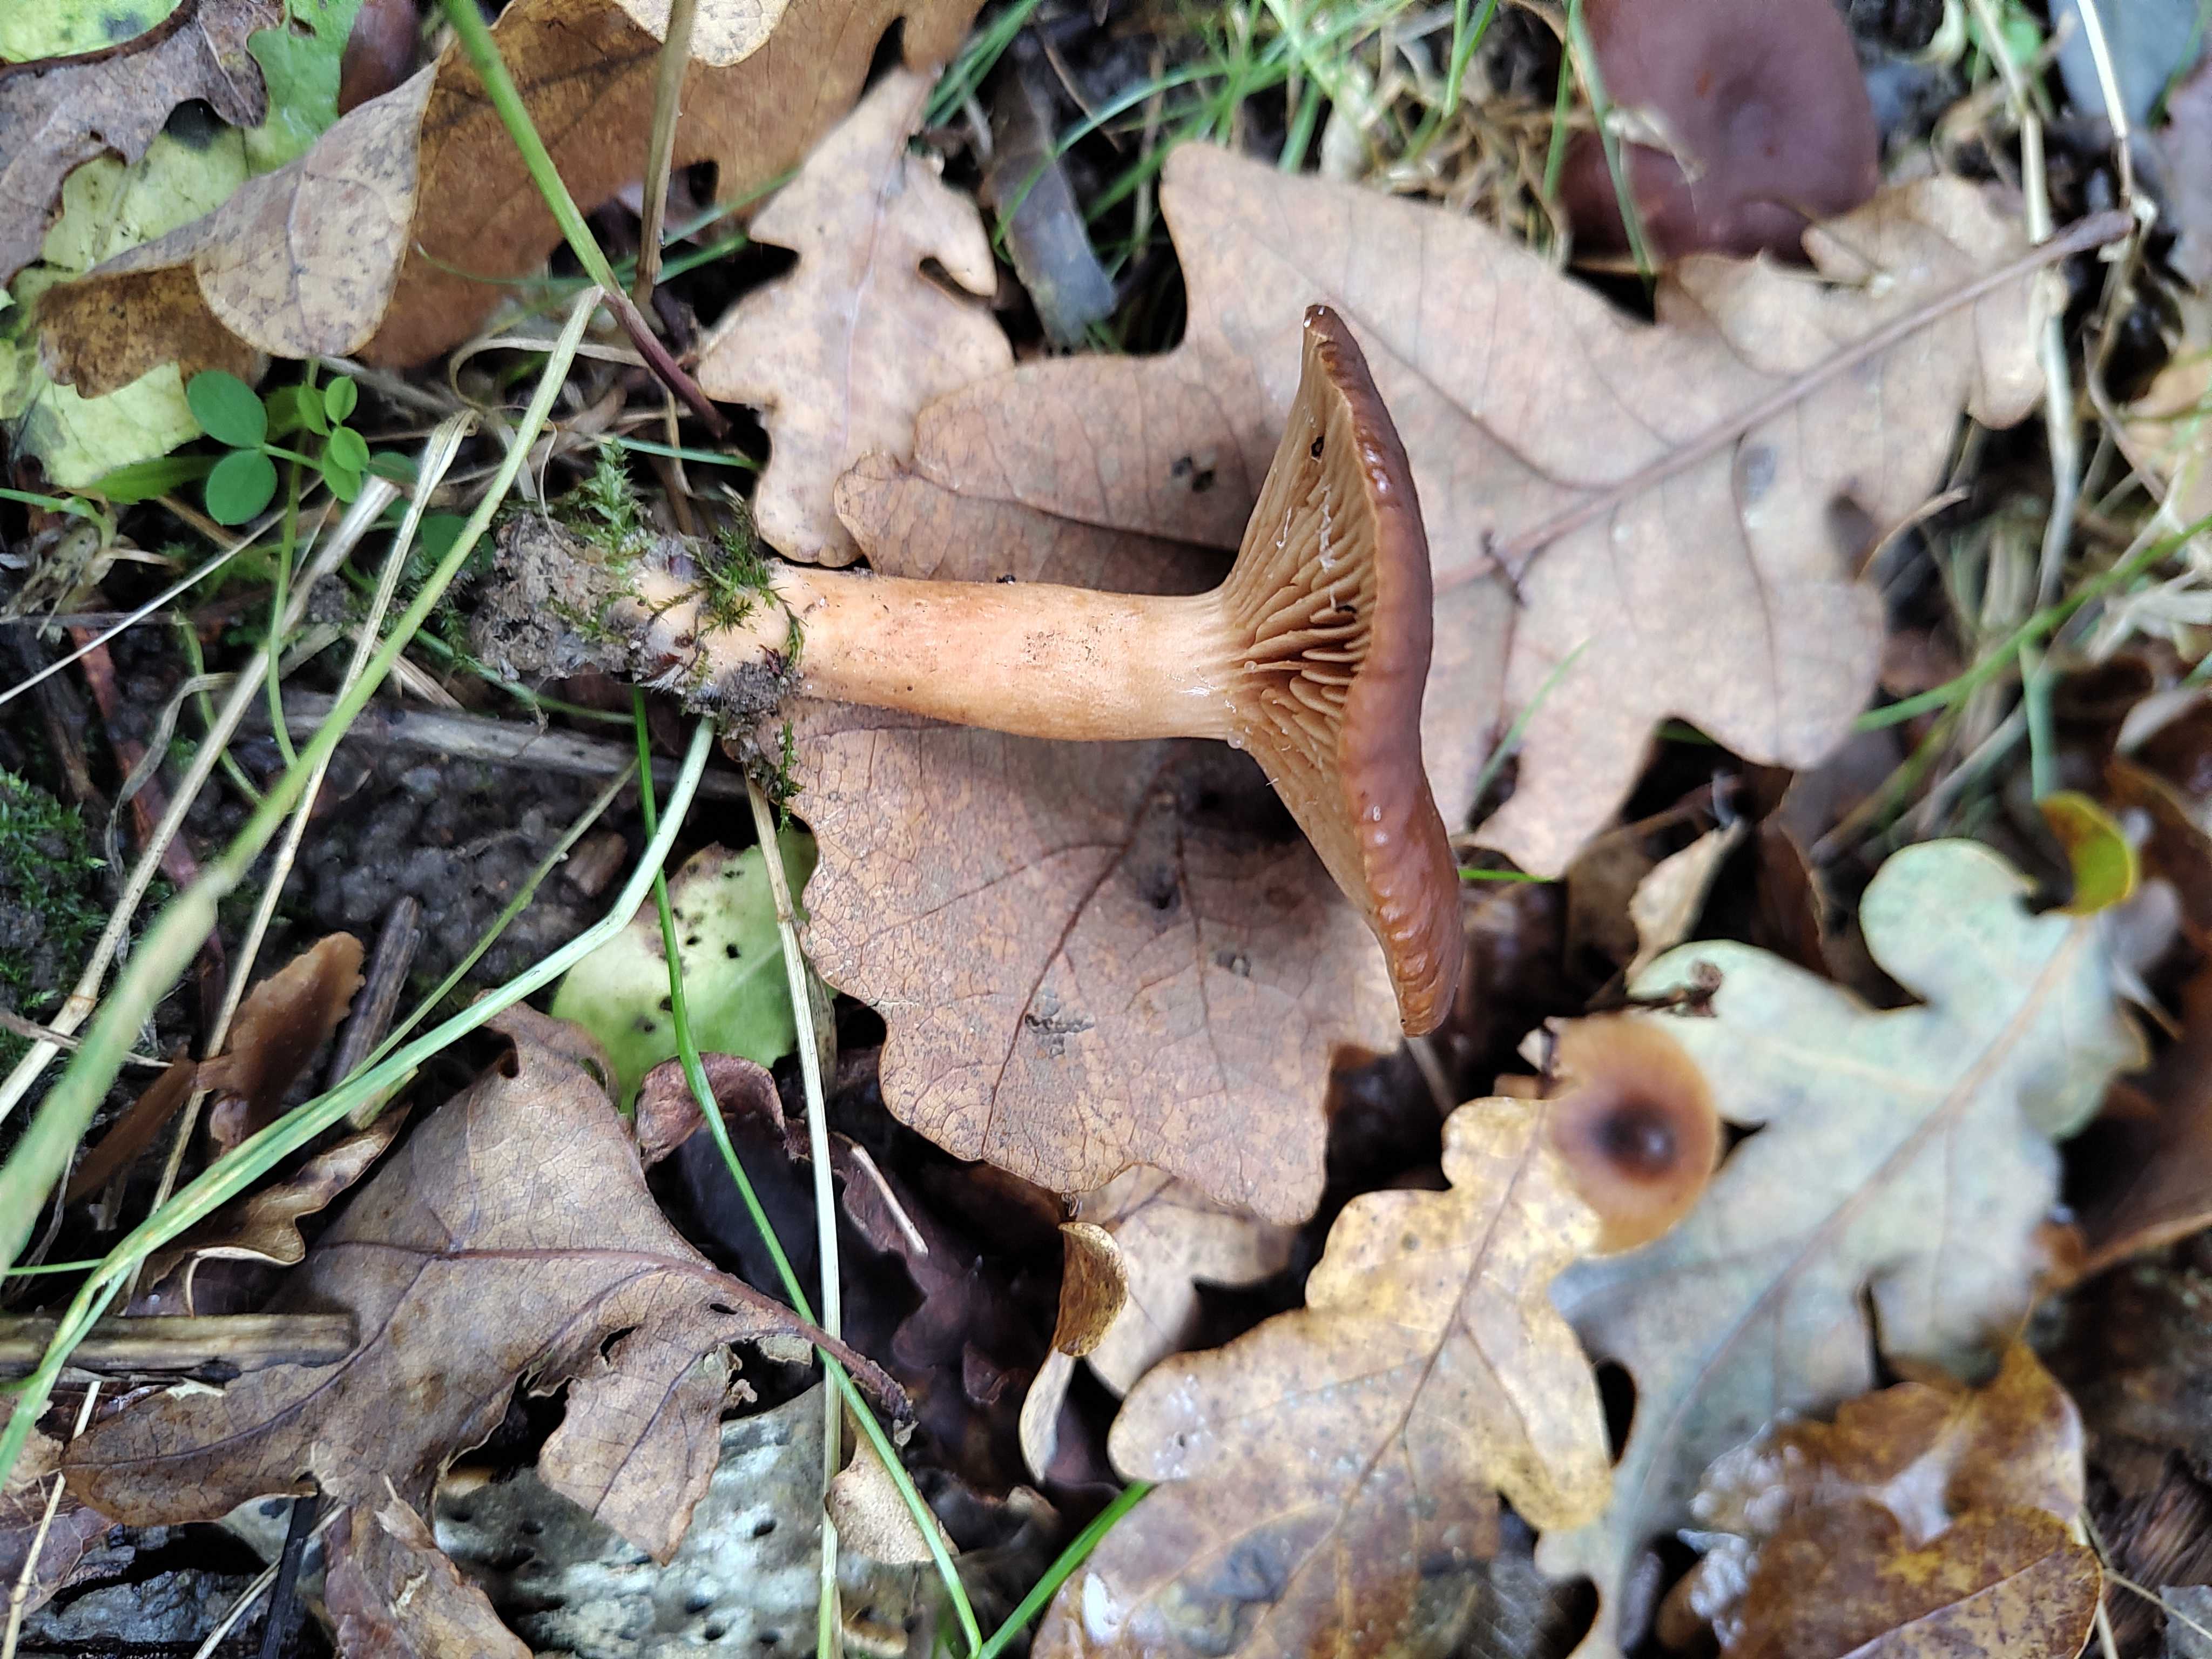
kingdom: Fungi
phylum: Basidiomycota
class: Agaricomycetes
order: Russulales
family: Russulaceae
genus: Lactarius
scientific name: Lactarius serifluus
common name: tæge-mælkehat
